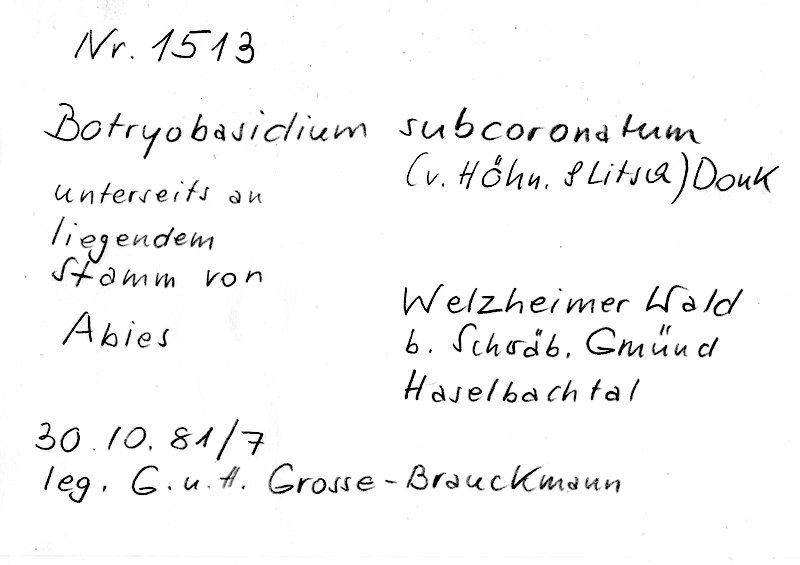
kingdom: Plantae
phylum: Tracheophyta
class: Pinopsida
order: Pinales
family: Pinaceae
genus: Abies
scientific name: Abies
